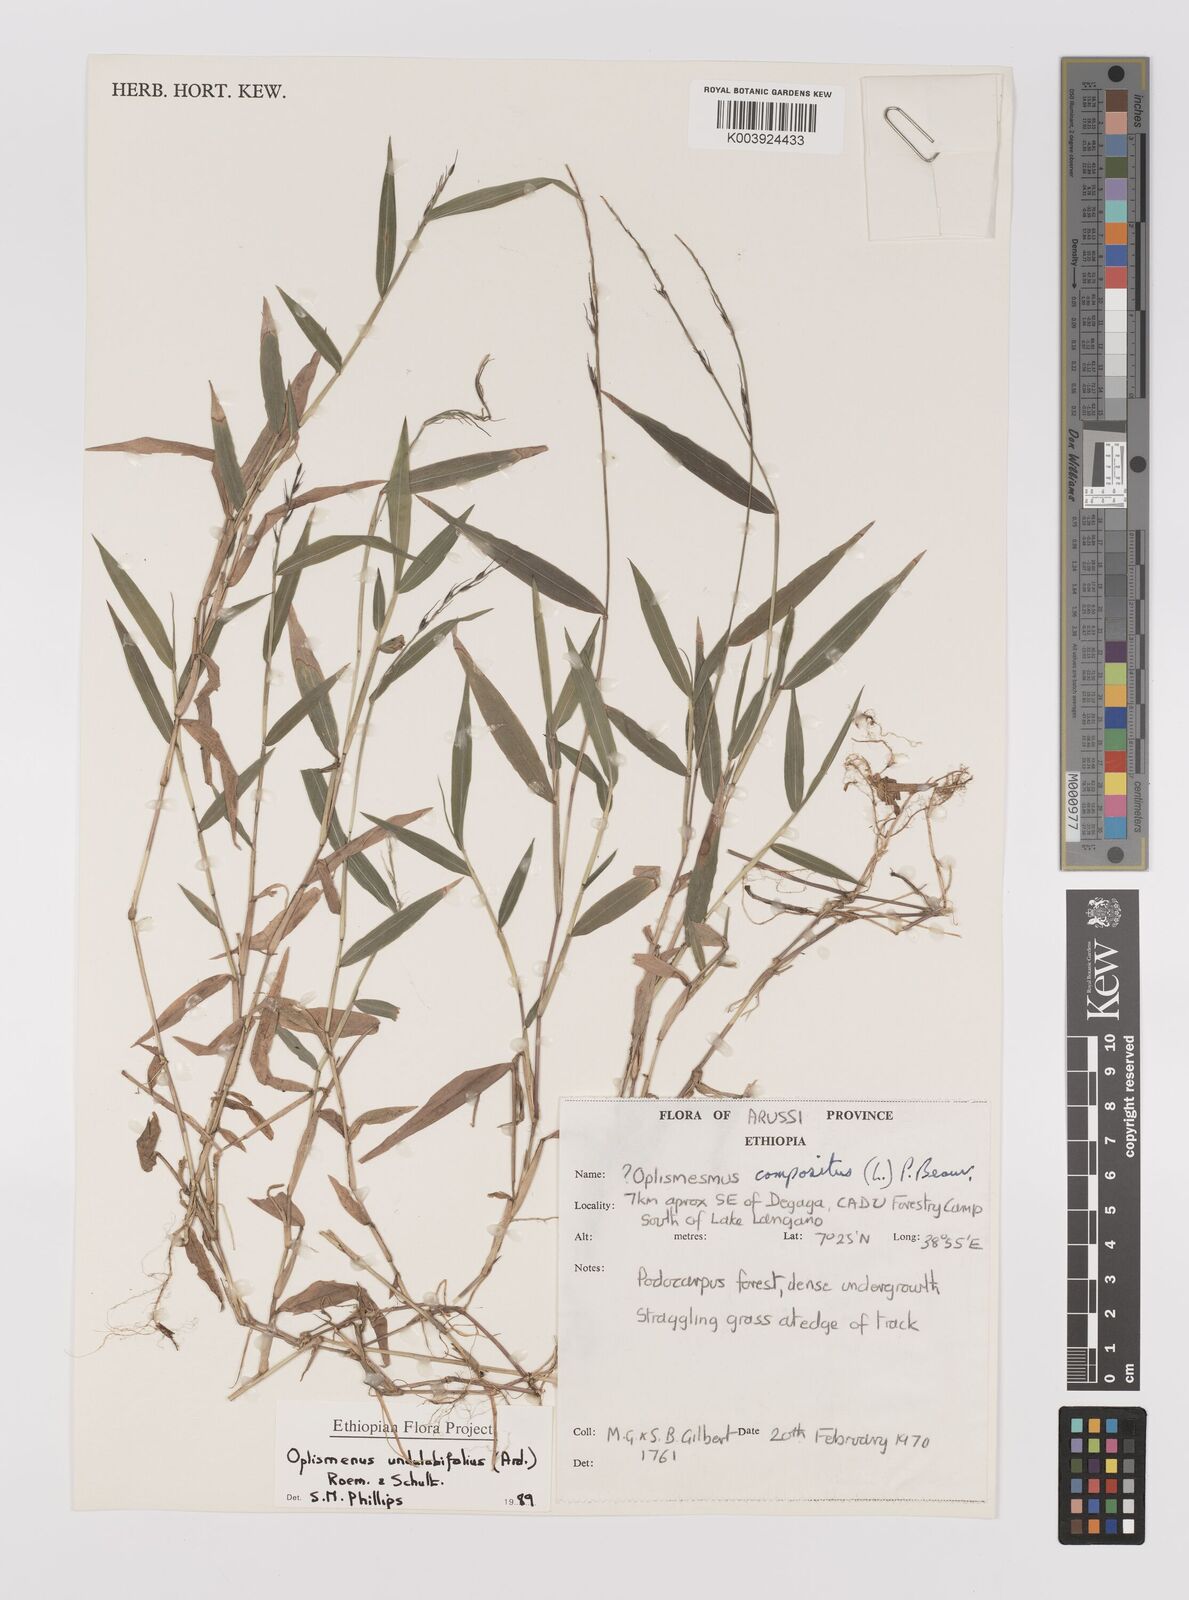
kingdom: Plantae
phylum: Tracheophyta
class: Liliopsida
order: Poales
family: Poaceae
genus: Oplismenus
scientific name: Oplismenus undulatifolius
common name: Wavyleaf basketgrass
